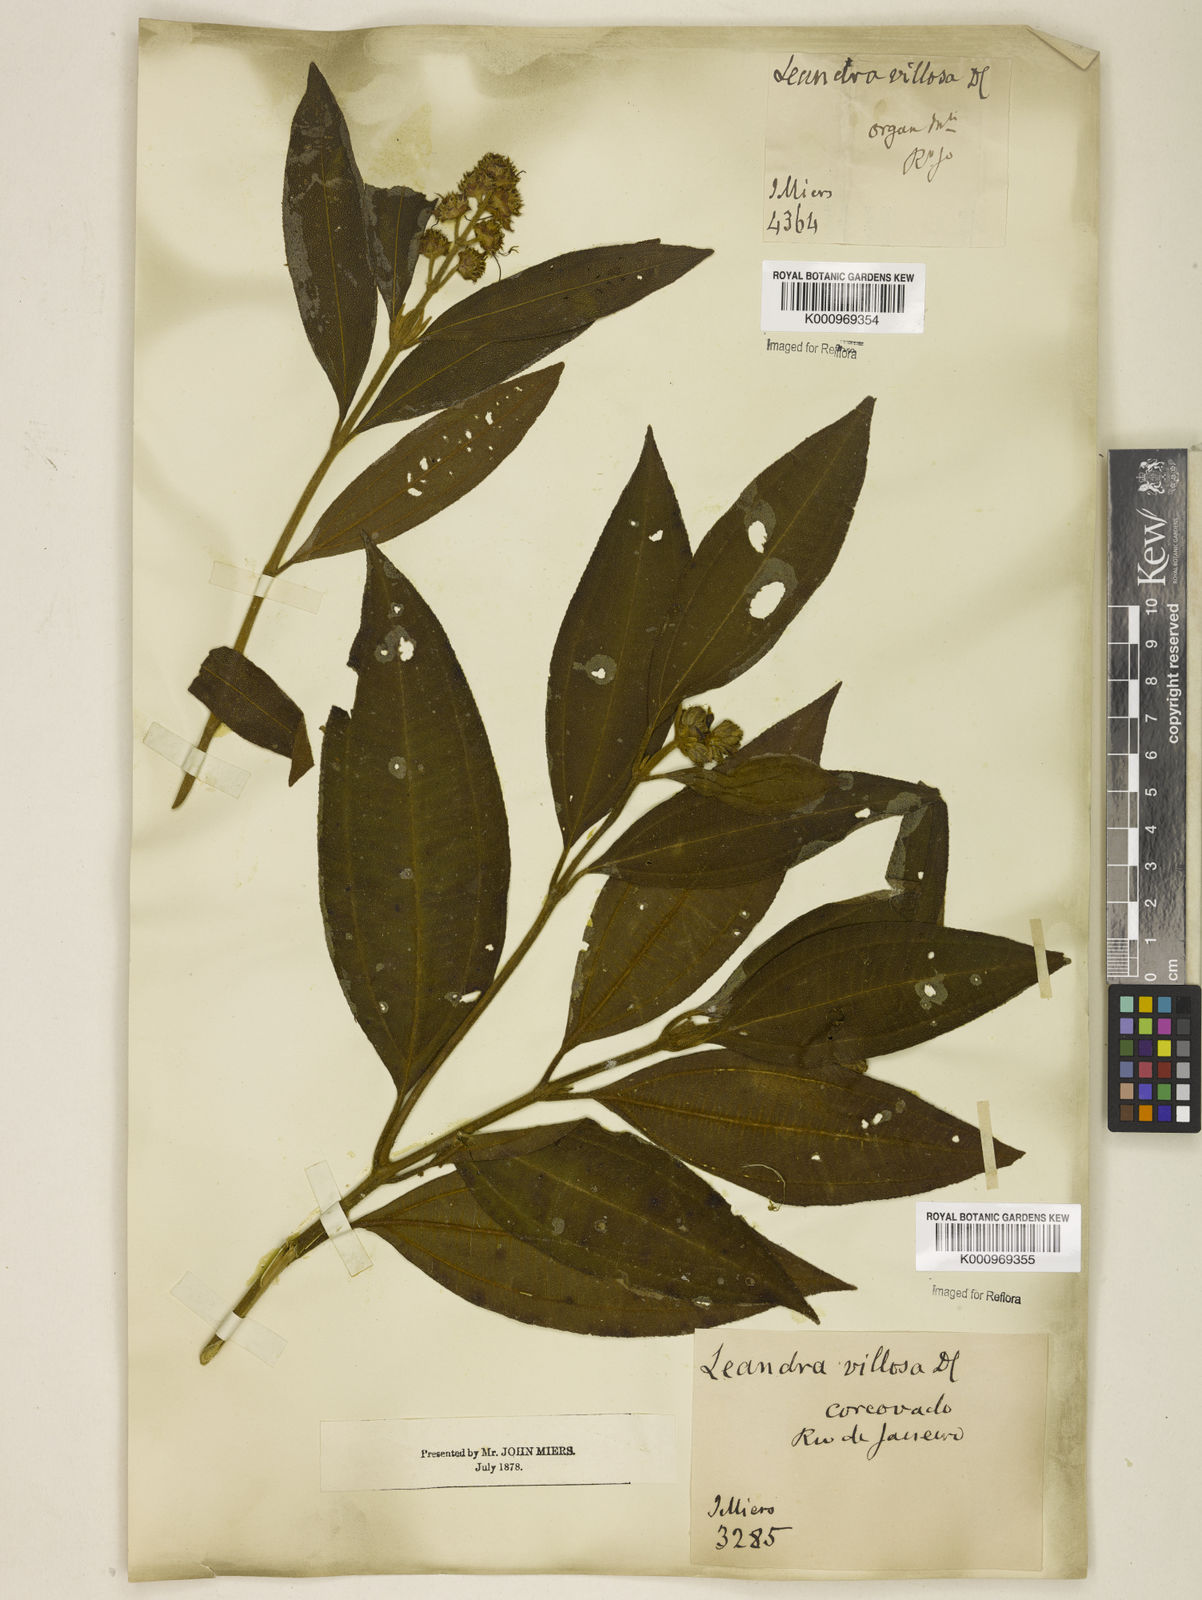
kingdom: Plantae
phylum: Tracheophyta
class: Magnoliopsida
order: Myrtales
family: Melastomataceae
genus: Miconia
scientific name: Miconia melastomoides
